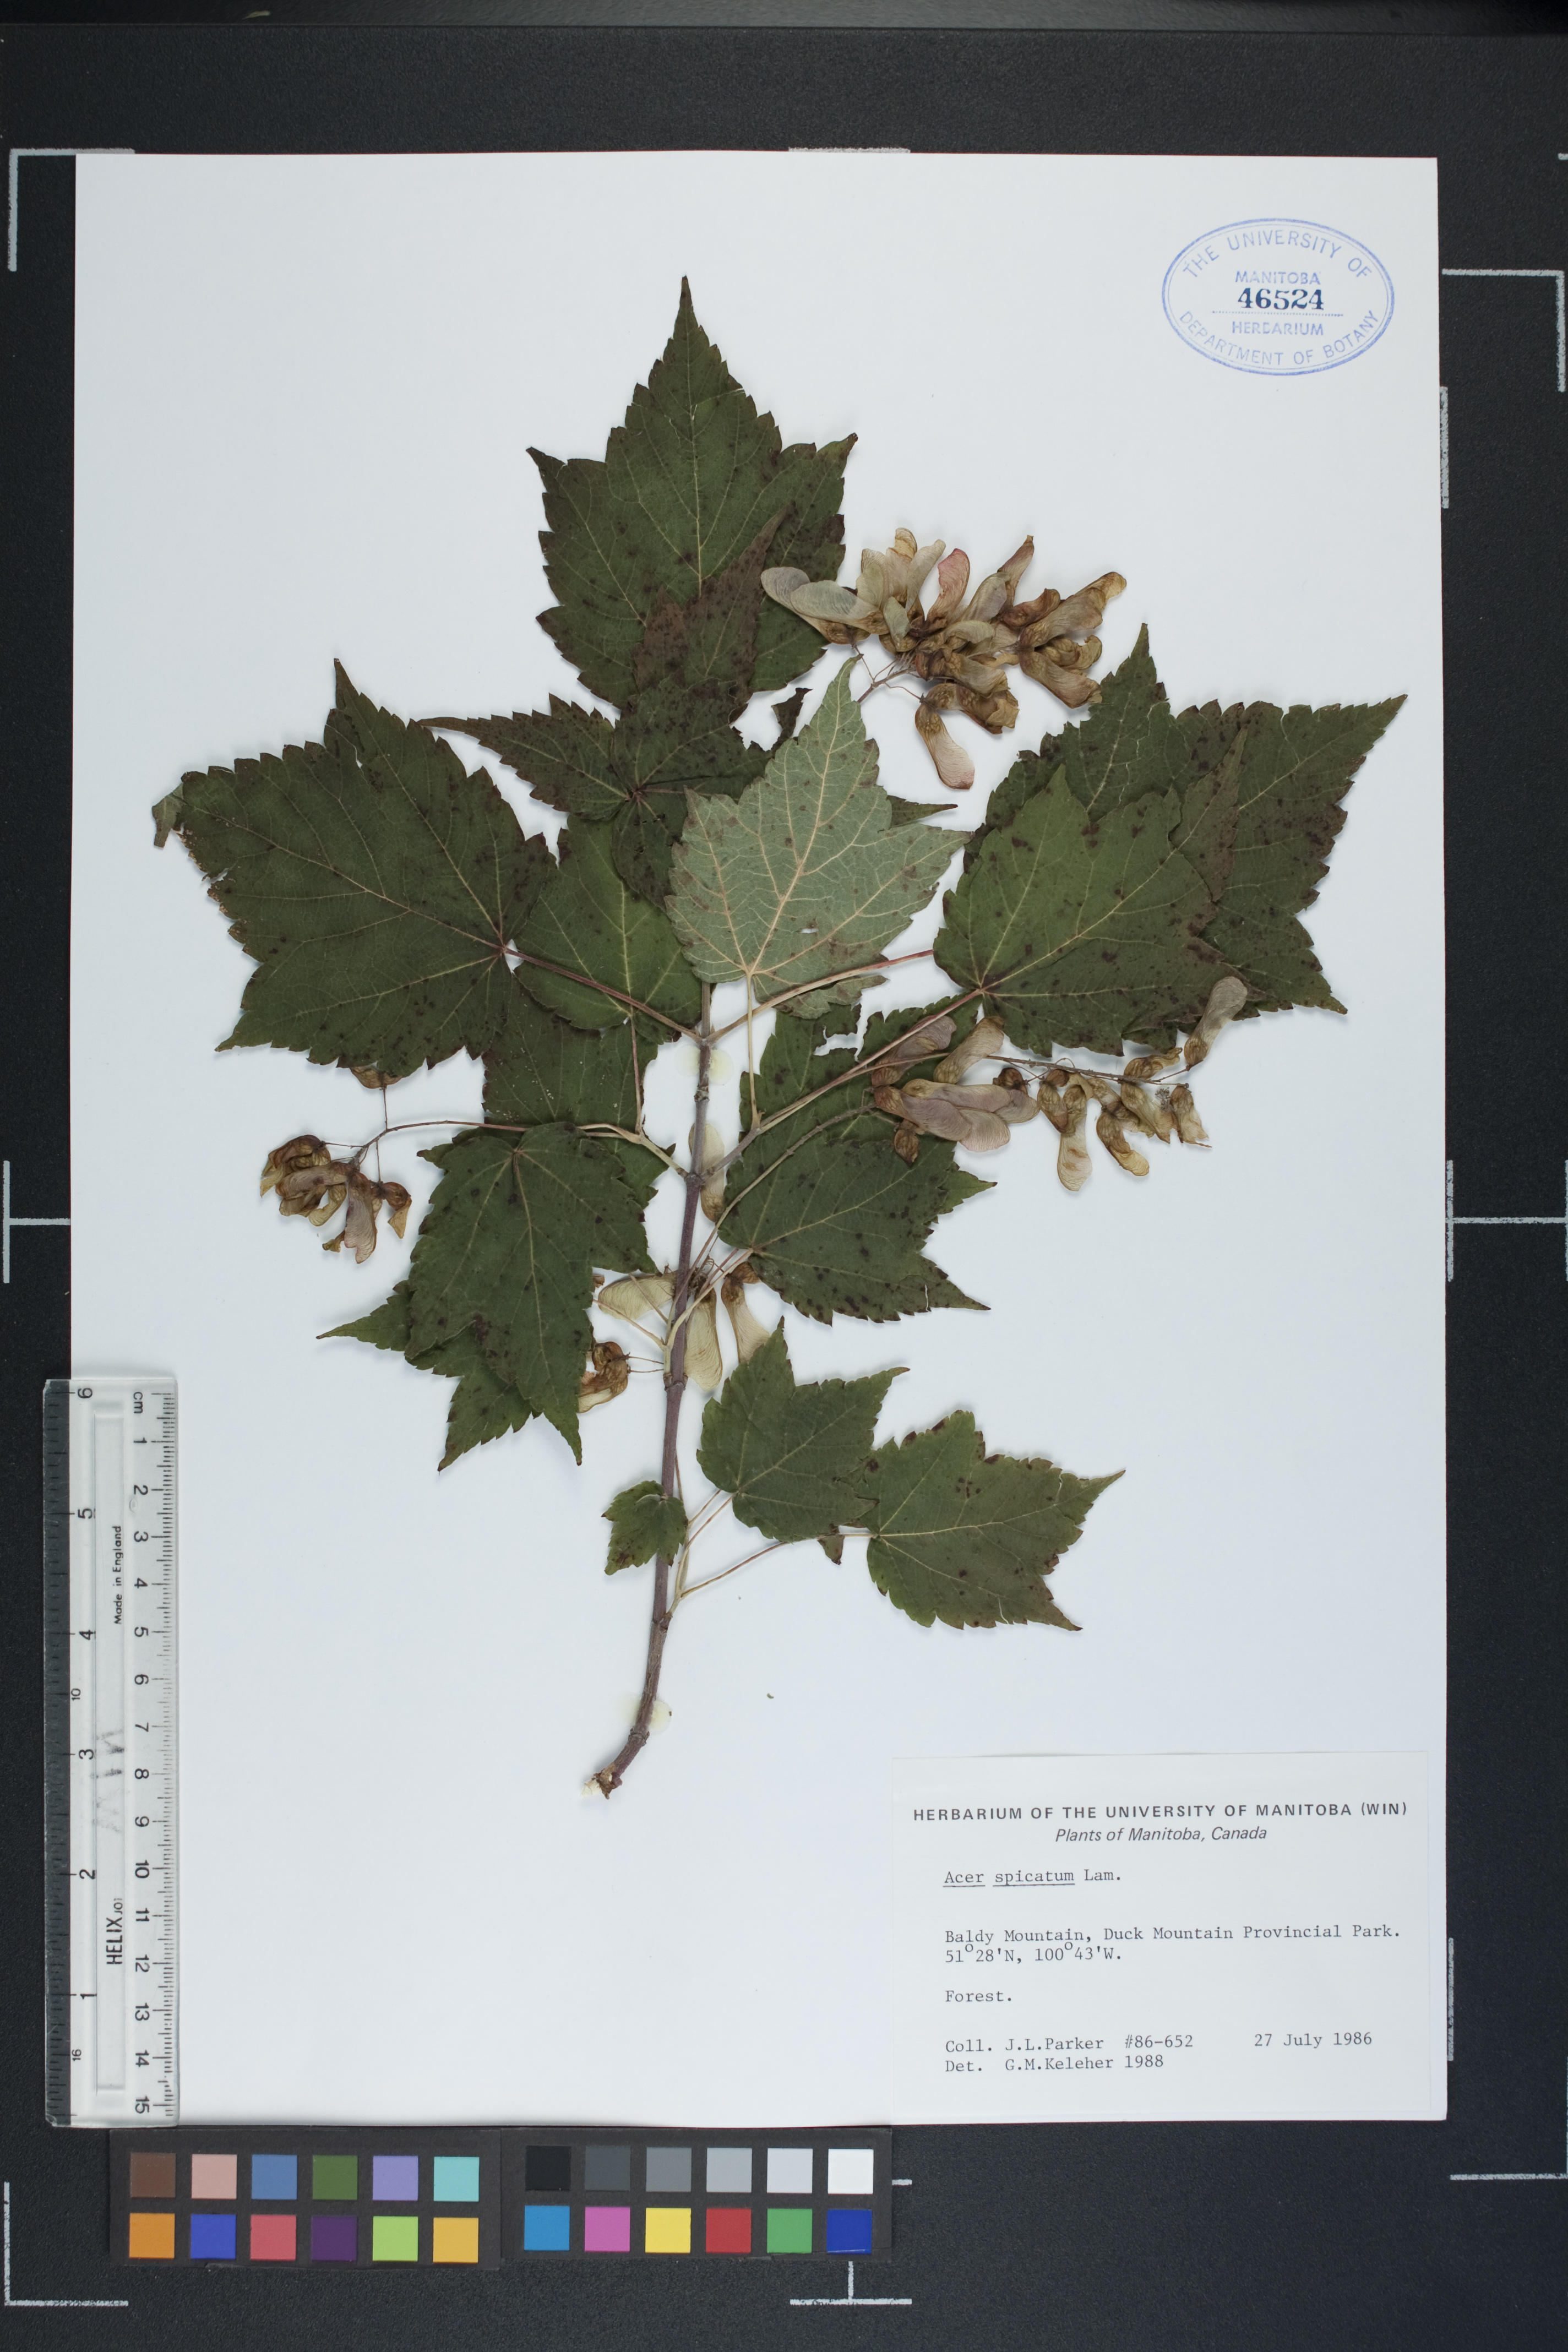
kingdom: Plantae
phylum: Tracheophyta
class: Magnoliopsida
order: Sapindales
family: Sapindaceae
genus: Acer
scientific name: Acer spicatum
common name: Mountain maple
